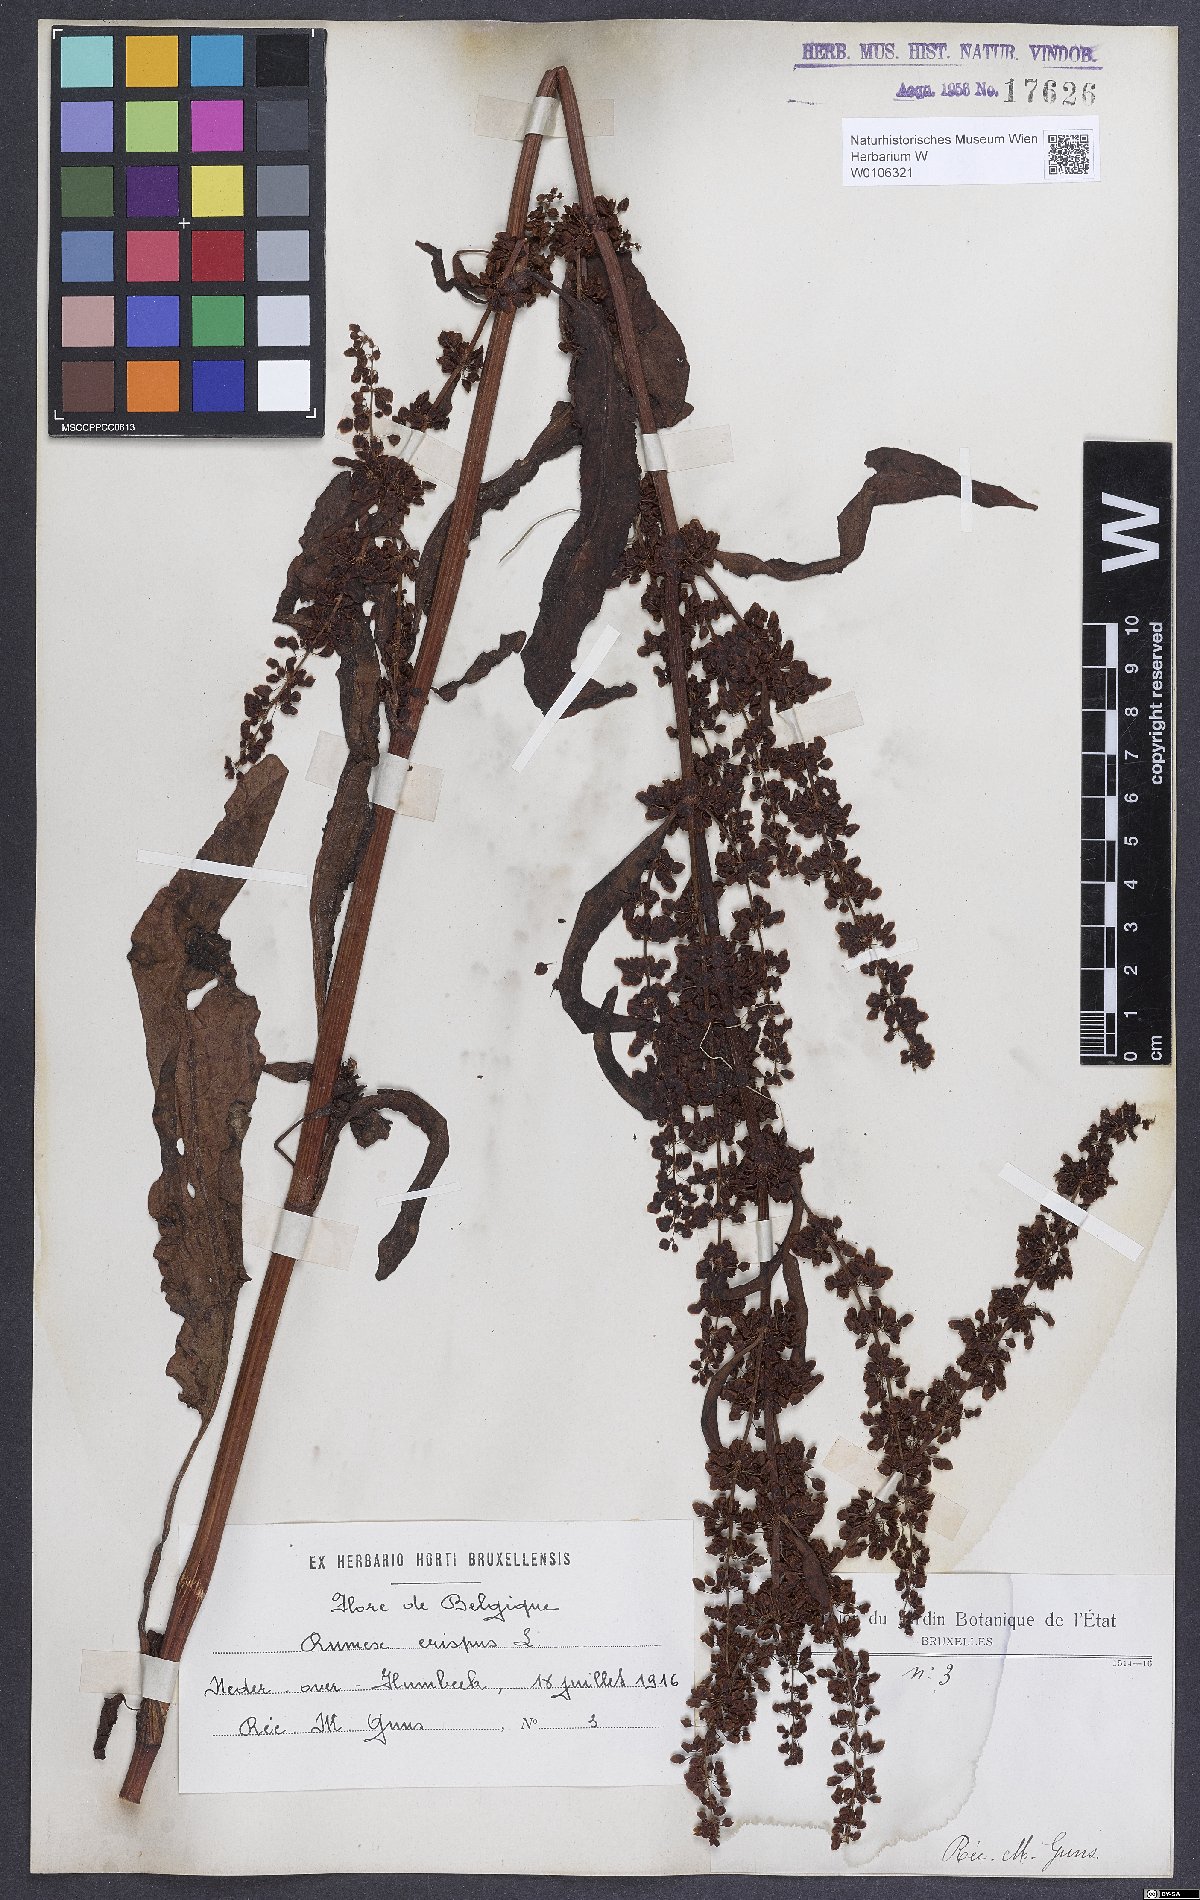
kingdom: Plantae
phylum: Tracheophyta
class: Magnoliopsida
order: Caryophyllales
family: Polygonaceae
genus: Rumex
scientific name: Rumex crispus
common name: Curled dock
